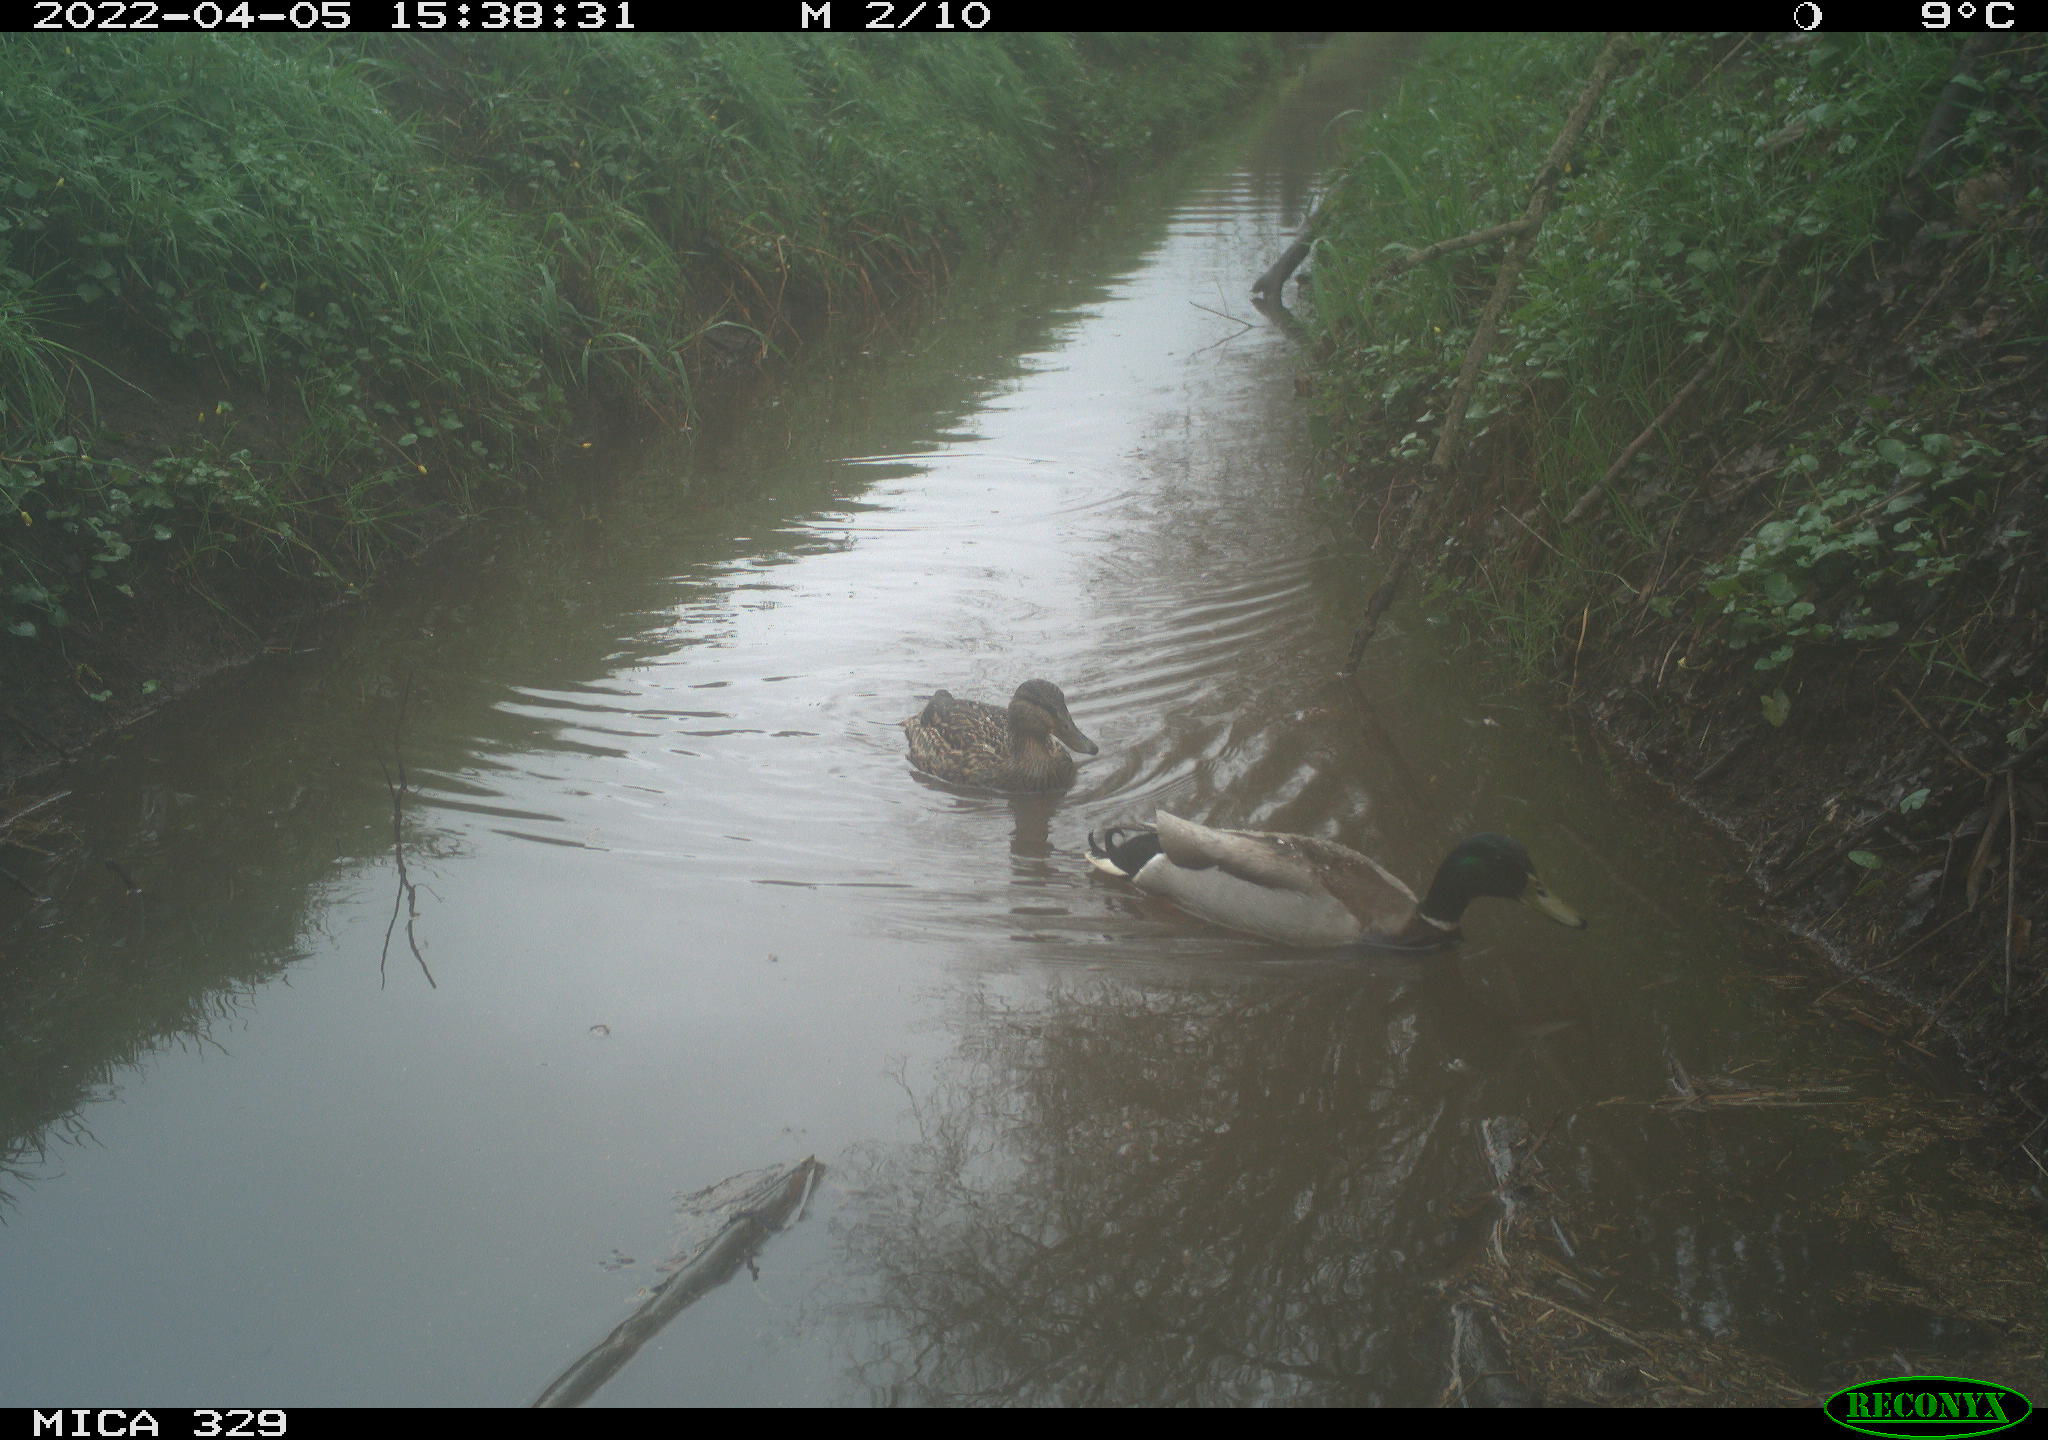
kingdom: Animalia
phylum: Chordata
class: Aves
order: Anseriformes
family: Anatidae
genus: Anas
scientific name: Anas platyrhynchos
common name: Mallard
